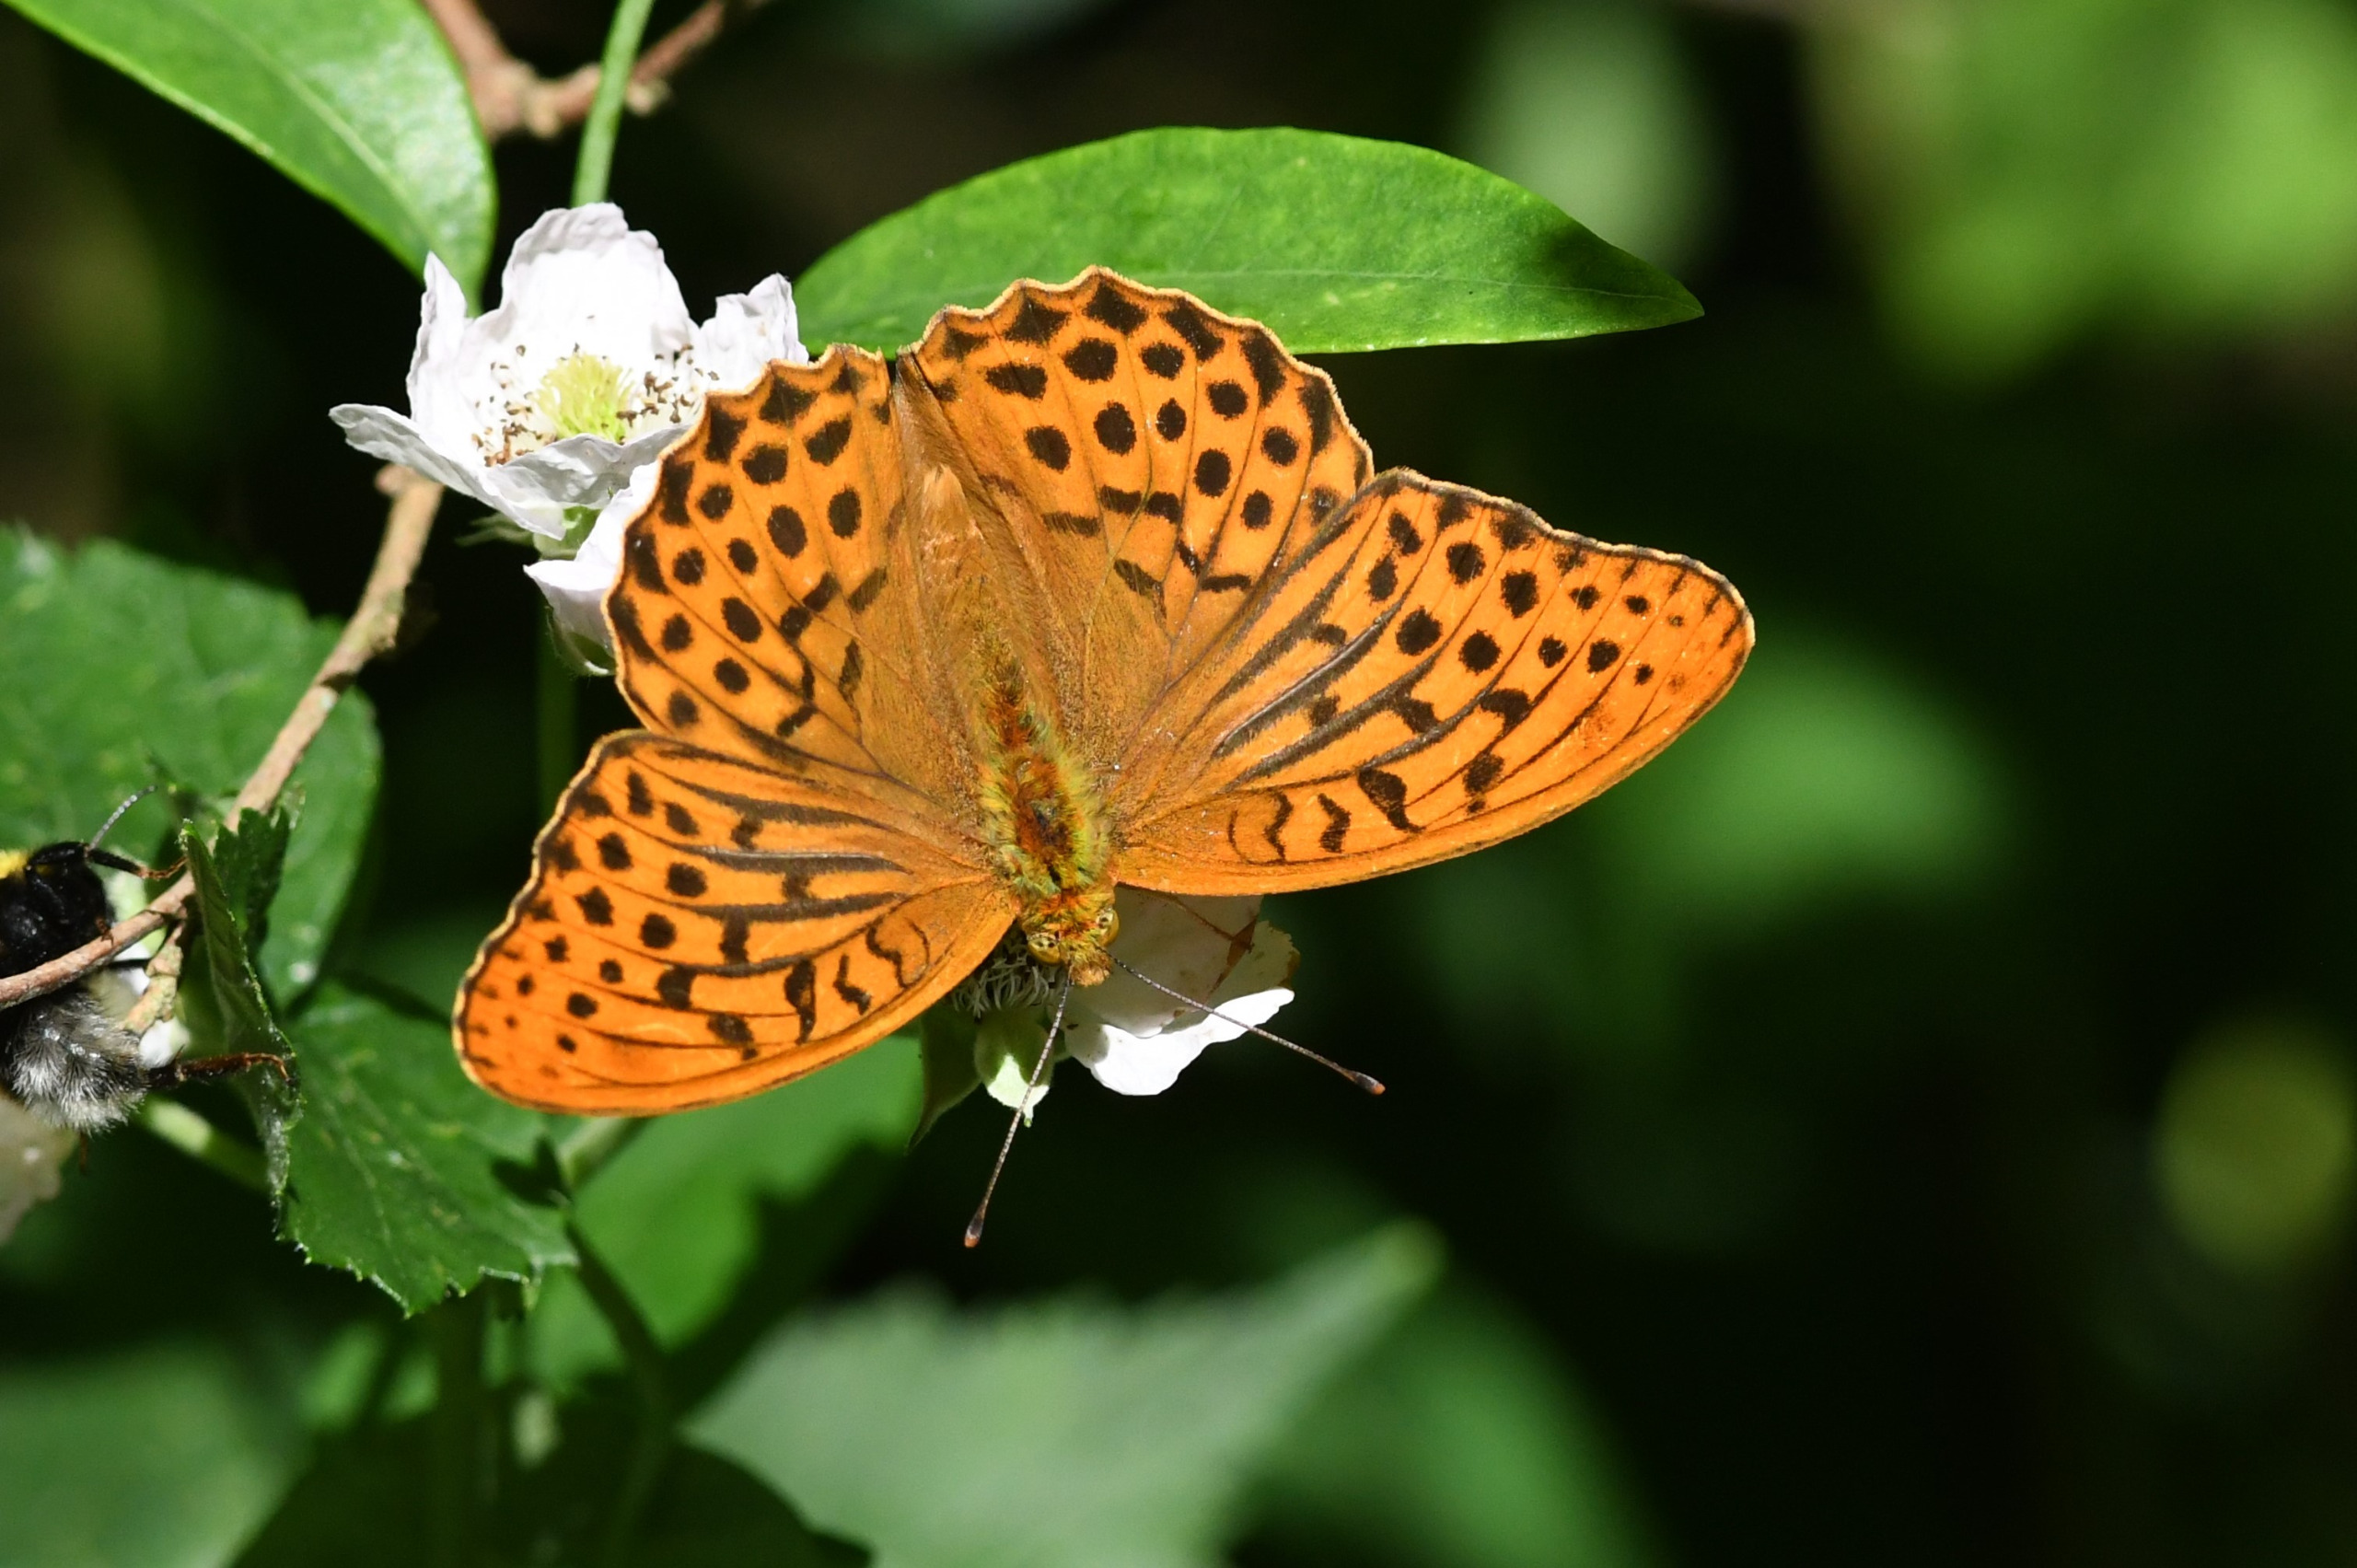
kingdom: Animalia
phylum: Arthropoda
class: Insecta
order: Lepidoptera
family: Nymphalidae
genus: Argynnis
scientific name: Argynnis paphia
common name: Kejserkåbe
